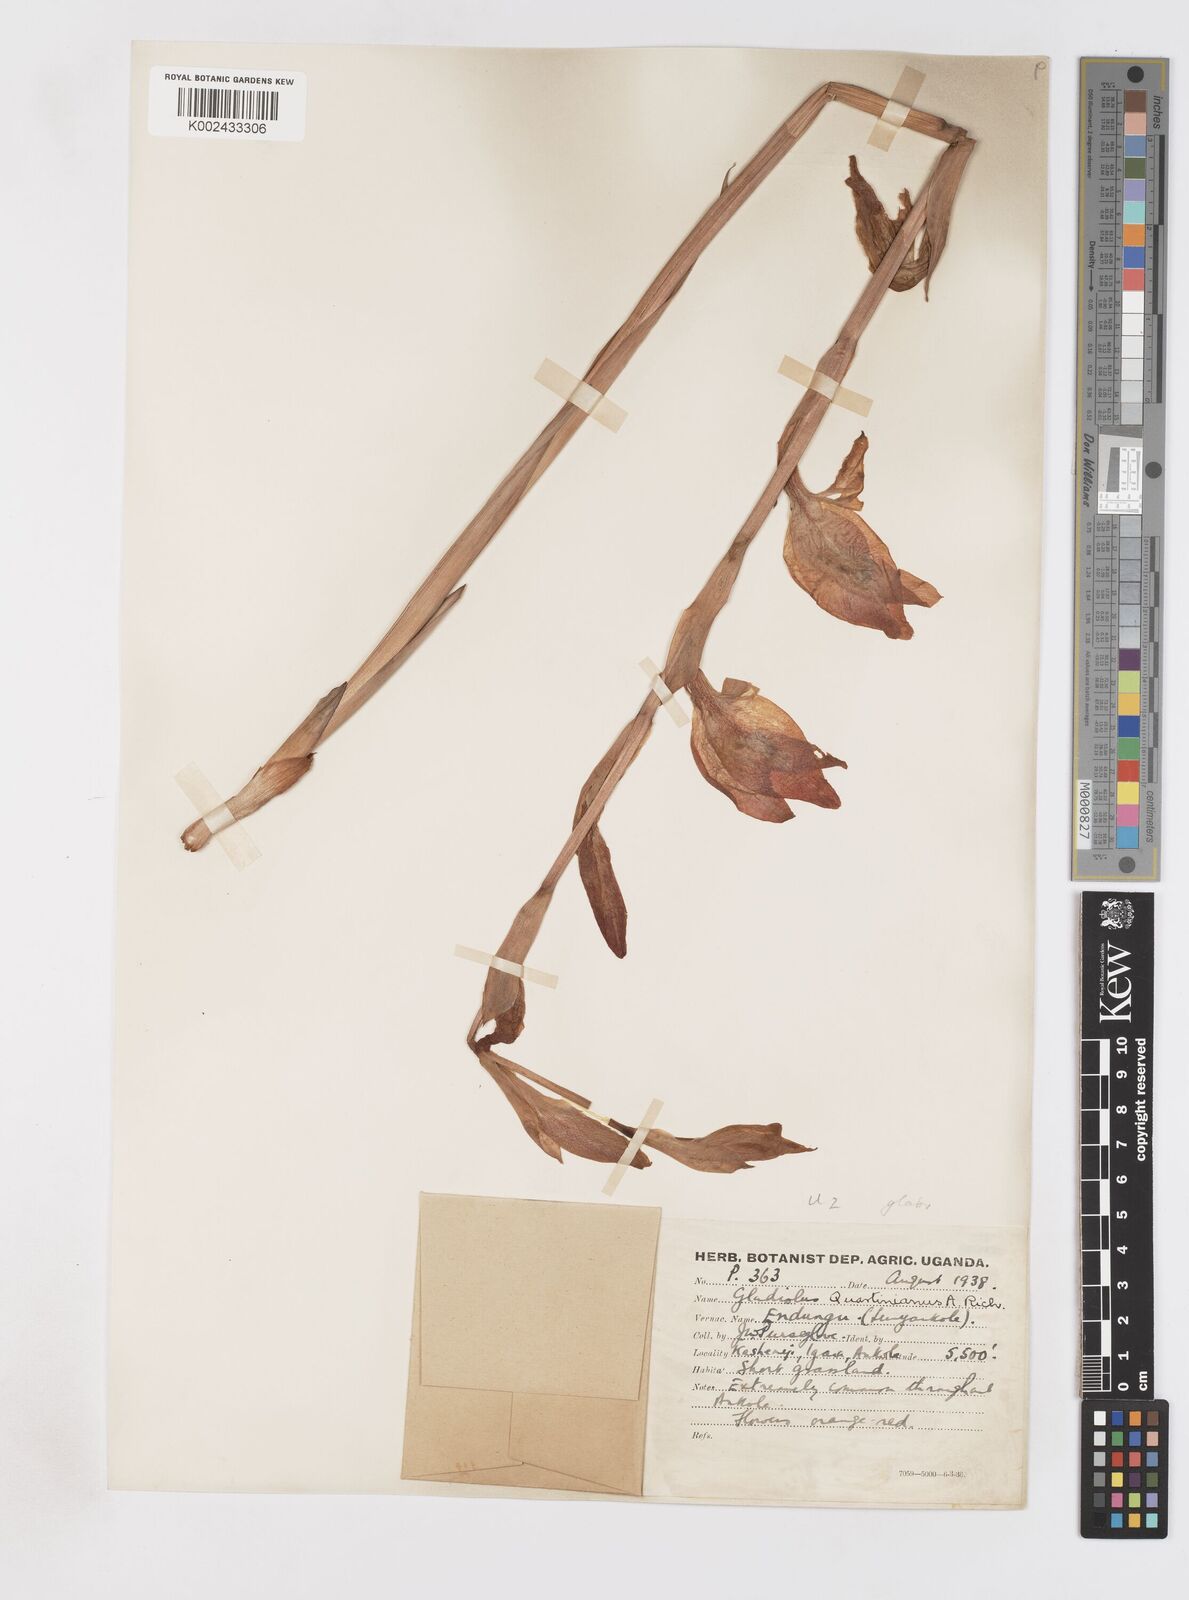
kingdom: Plantae
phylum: Tracheophyta
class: Liliopsida
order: Asparagales
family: Iridaceae
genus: Gladiolus
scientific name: Gladiolus dalenii
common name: Cornflag
